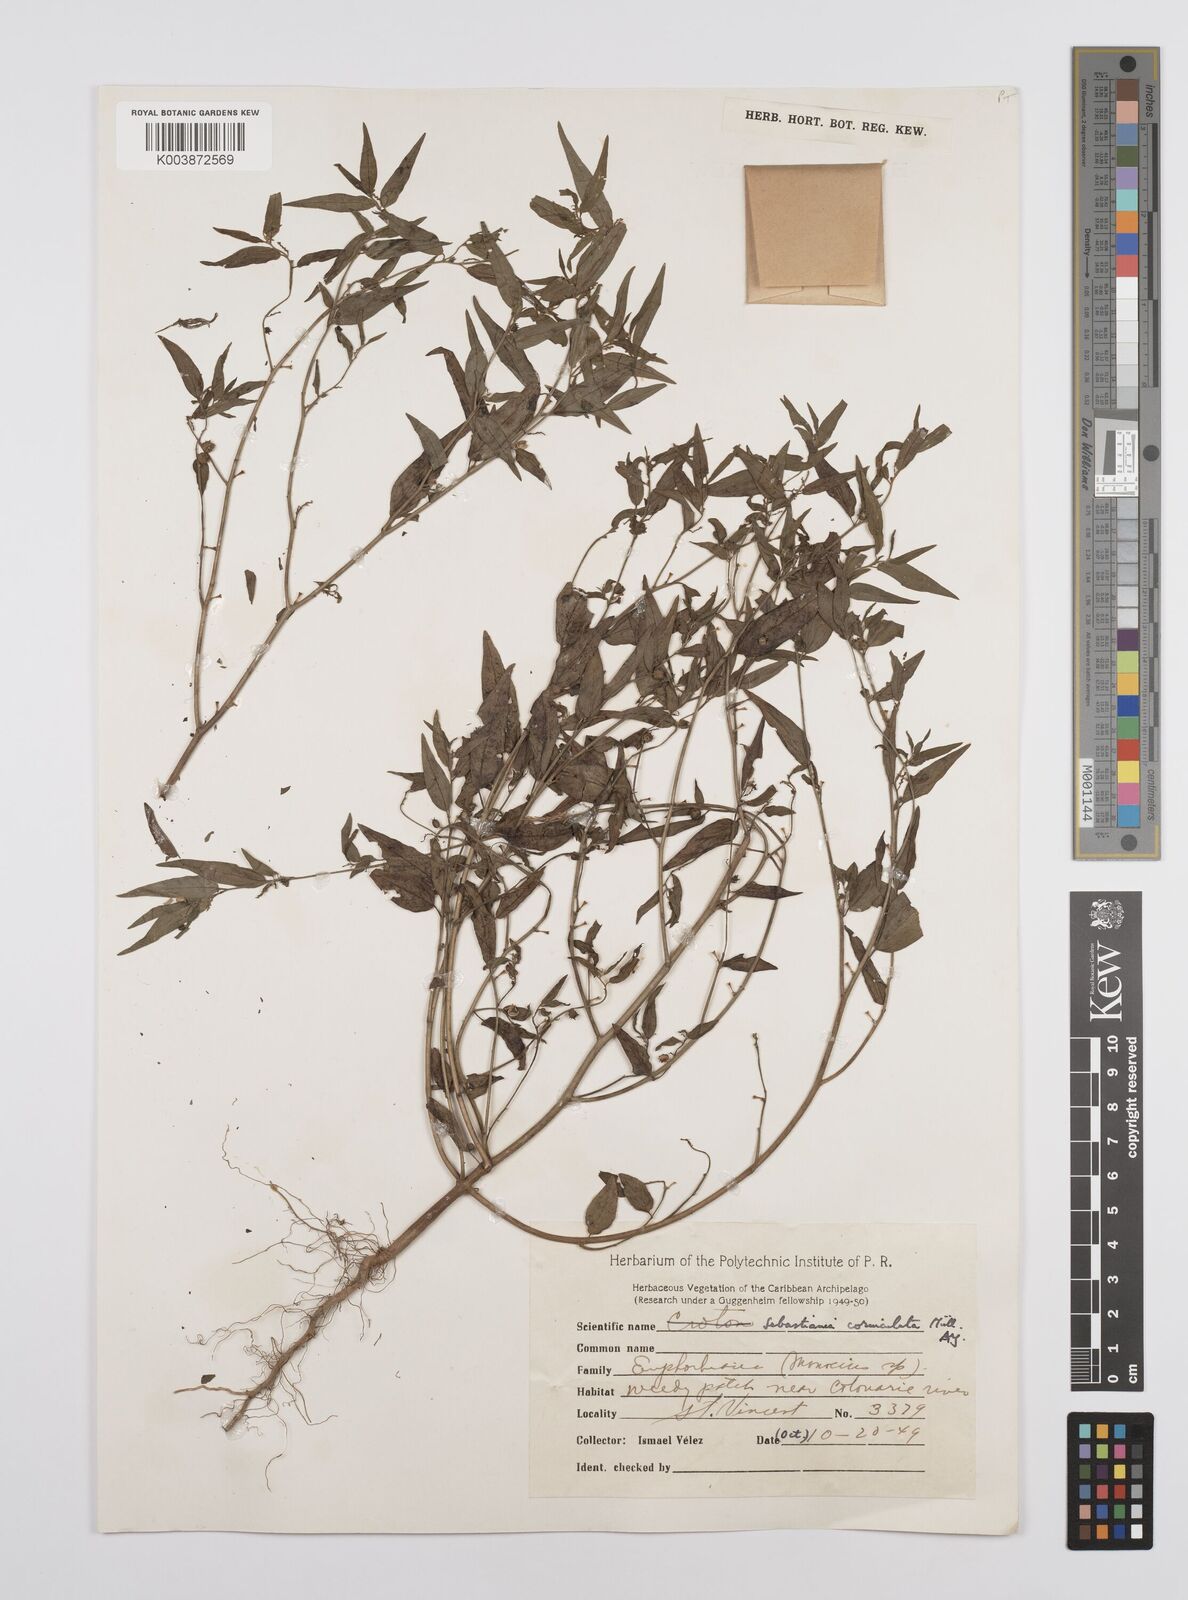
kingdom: Plantae
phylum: Tracheophyta
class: Magnoliopsida
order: Malpighiales
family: Euphorbiaceae
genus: Microstachys
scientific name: Microstachys corniculata
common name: Hato tejas
